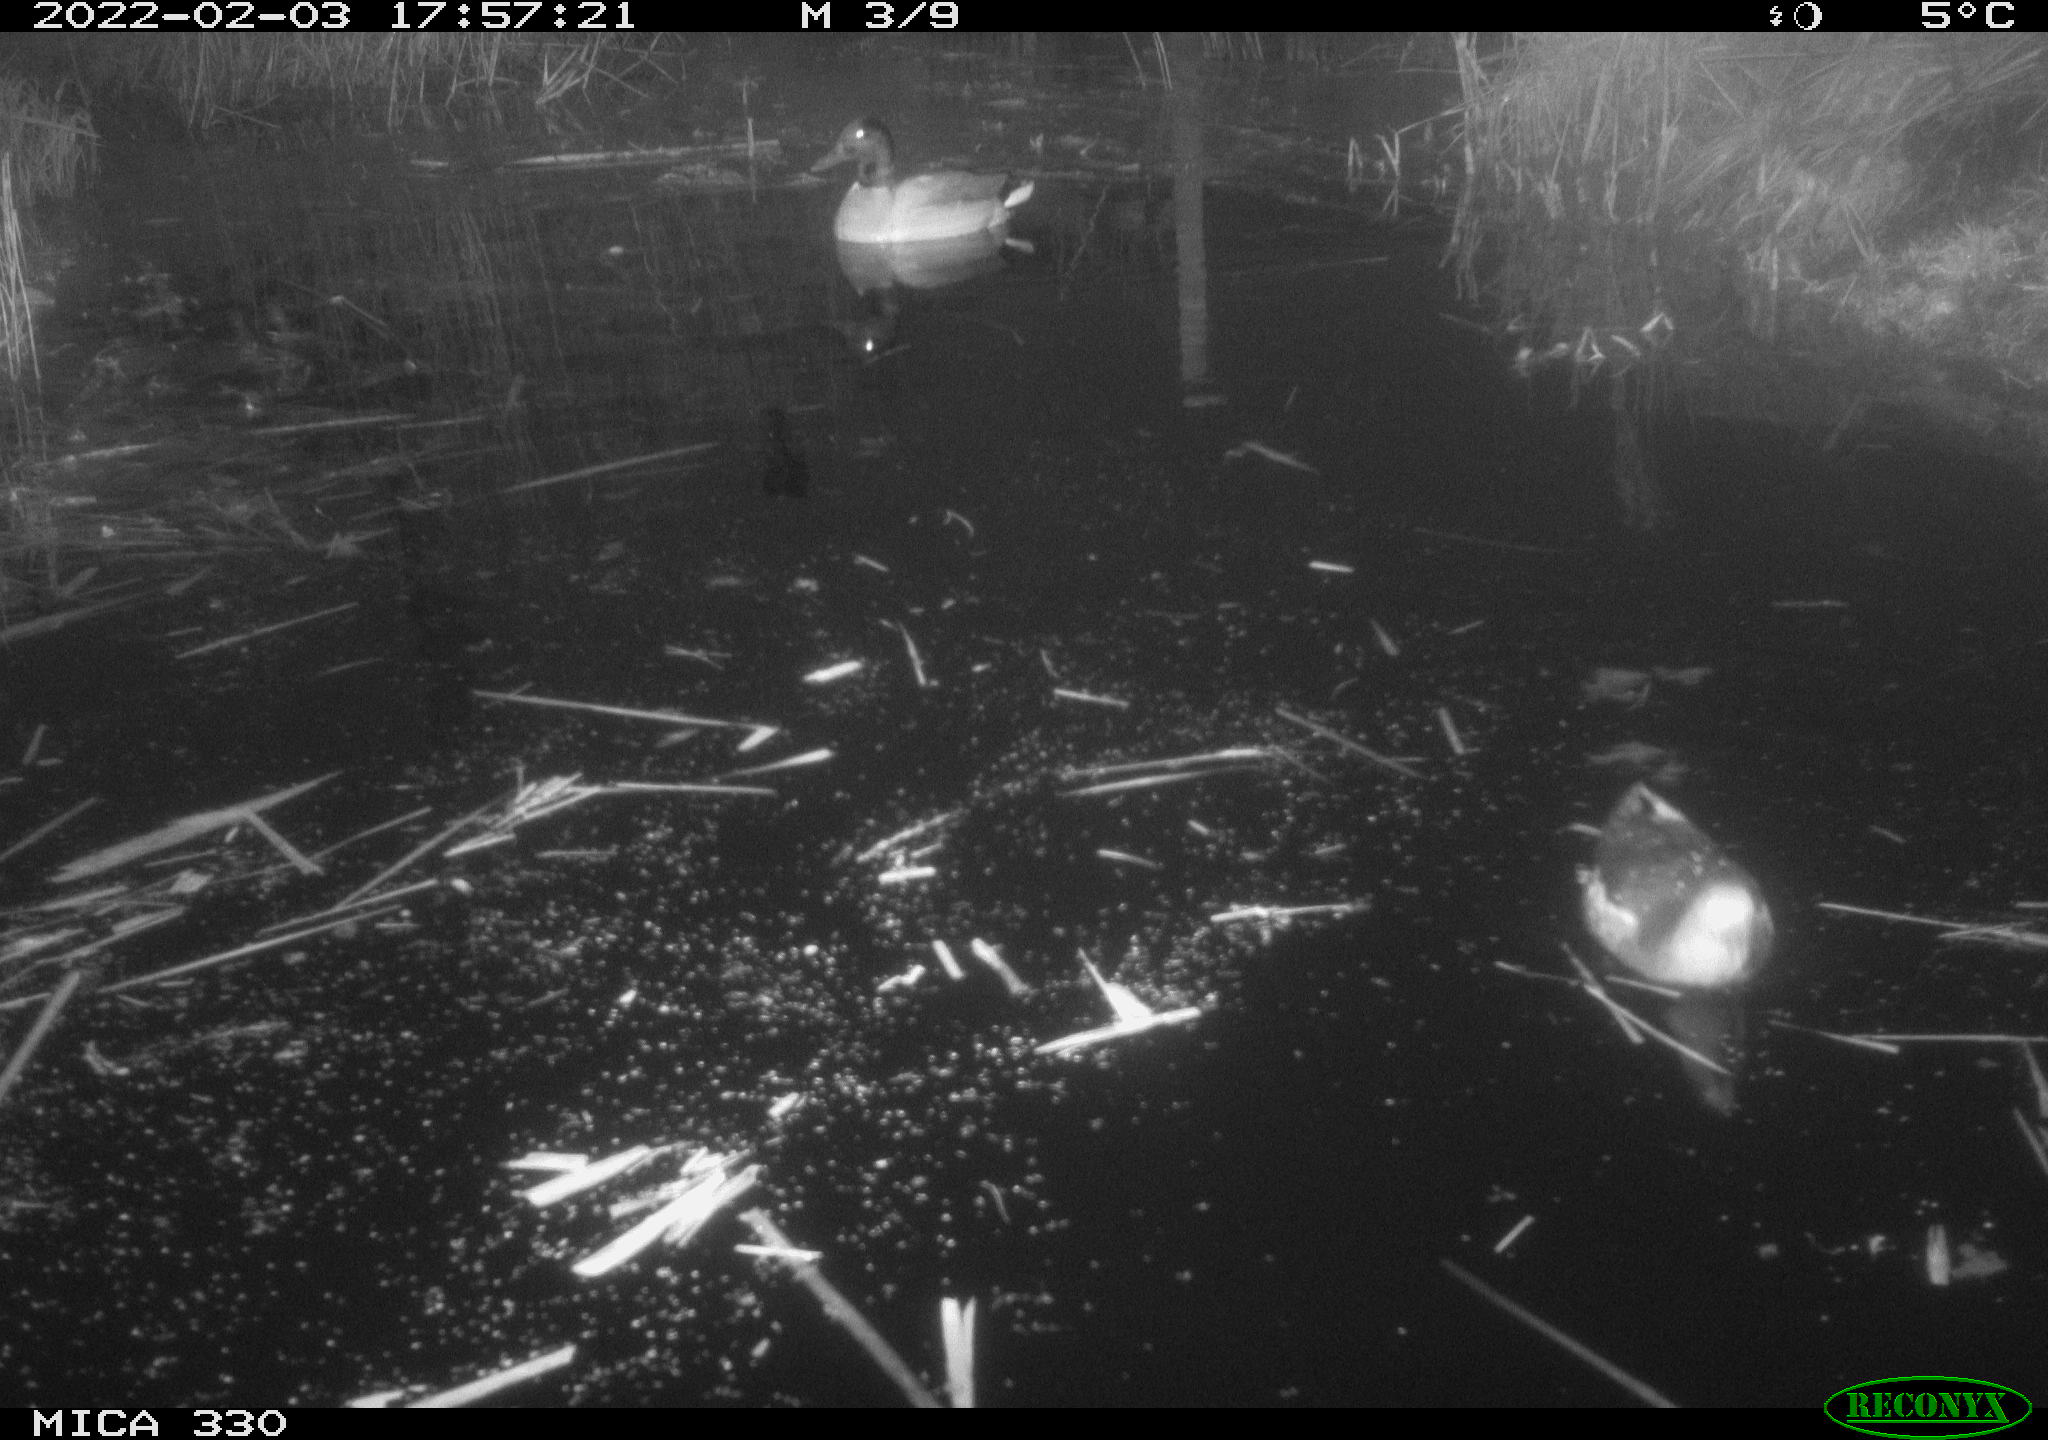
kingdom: Animalia
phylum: Chordata
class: Aves
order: Anseriformes
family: Anatidae
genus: Anas
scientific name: Anas platyrhynchos
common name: Mallard
